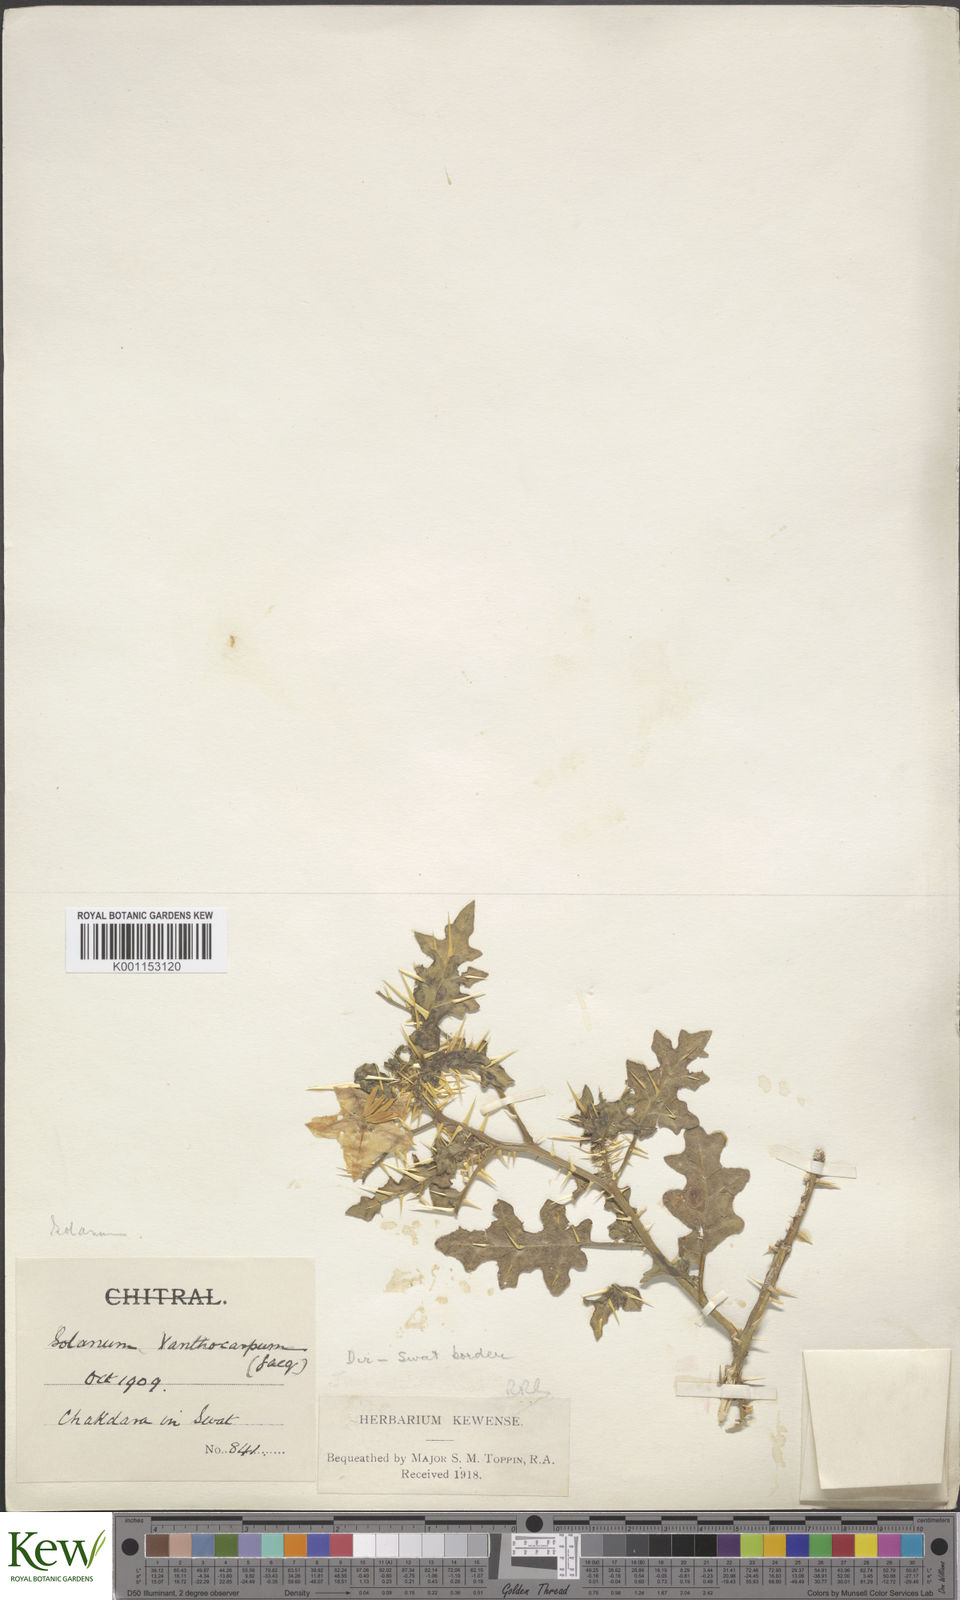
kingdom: Plantae
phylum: Tracheophyta
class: Magnoliopsida
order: Solanales
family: Solanaceae
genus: Solanum
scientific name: Solanum virginianum
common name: Surattense nightshade
